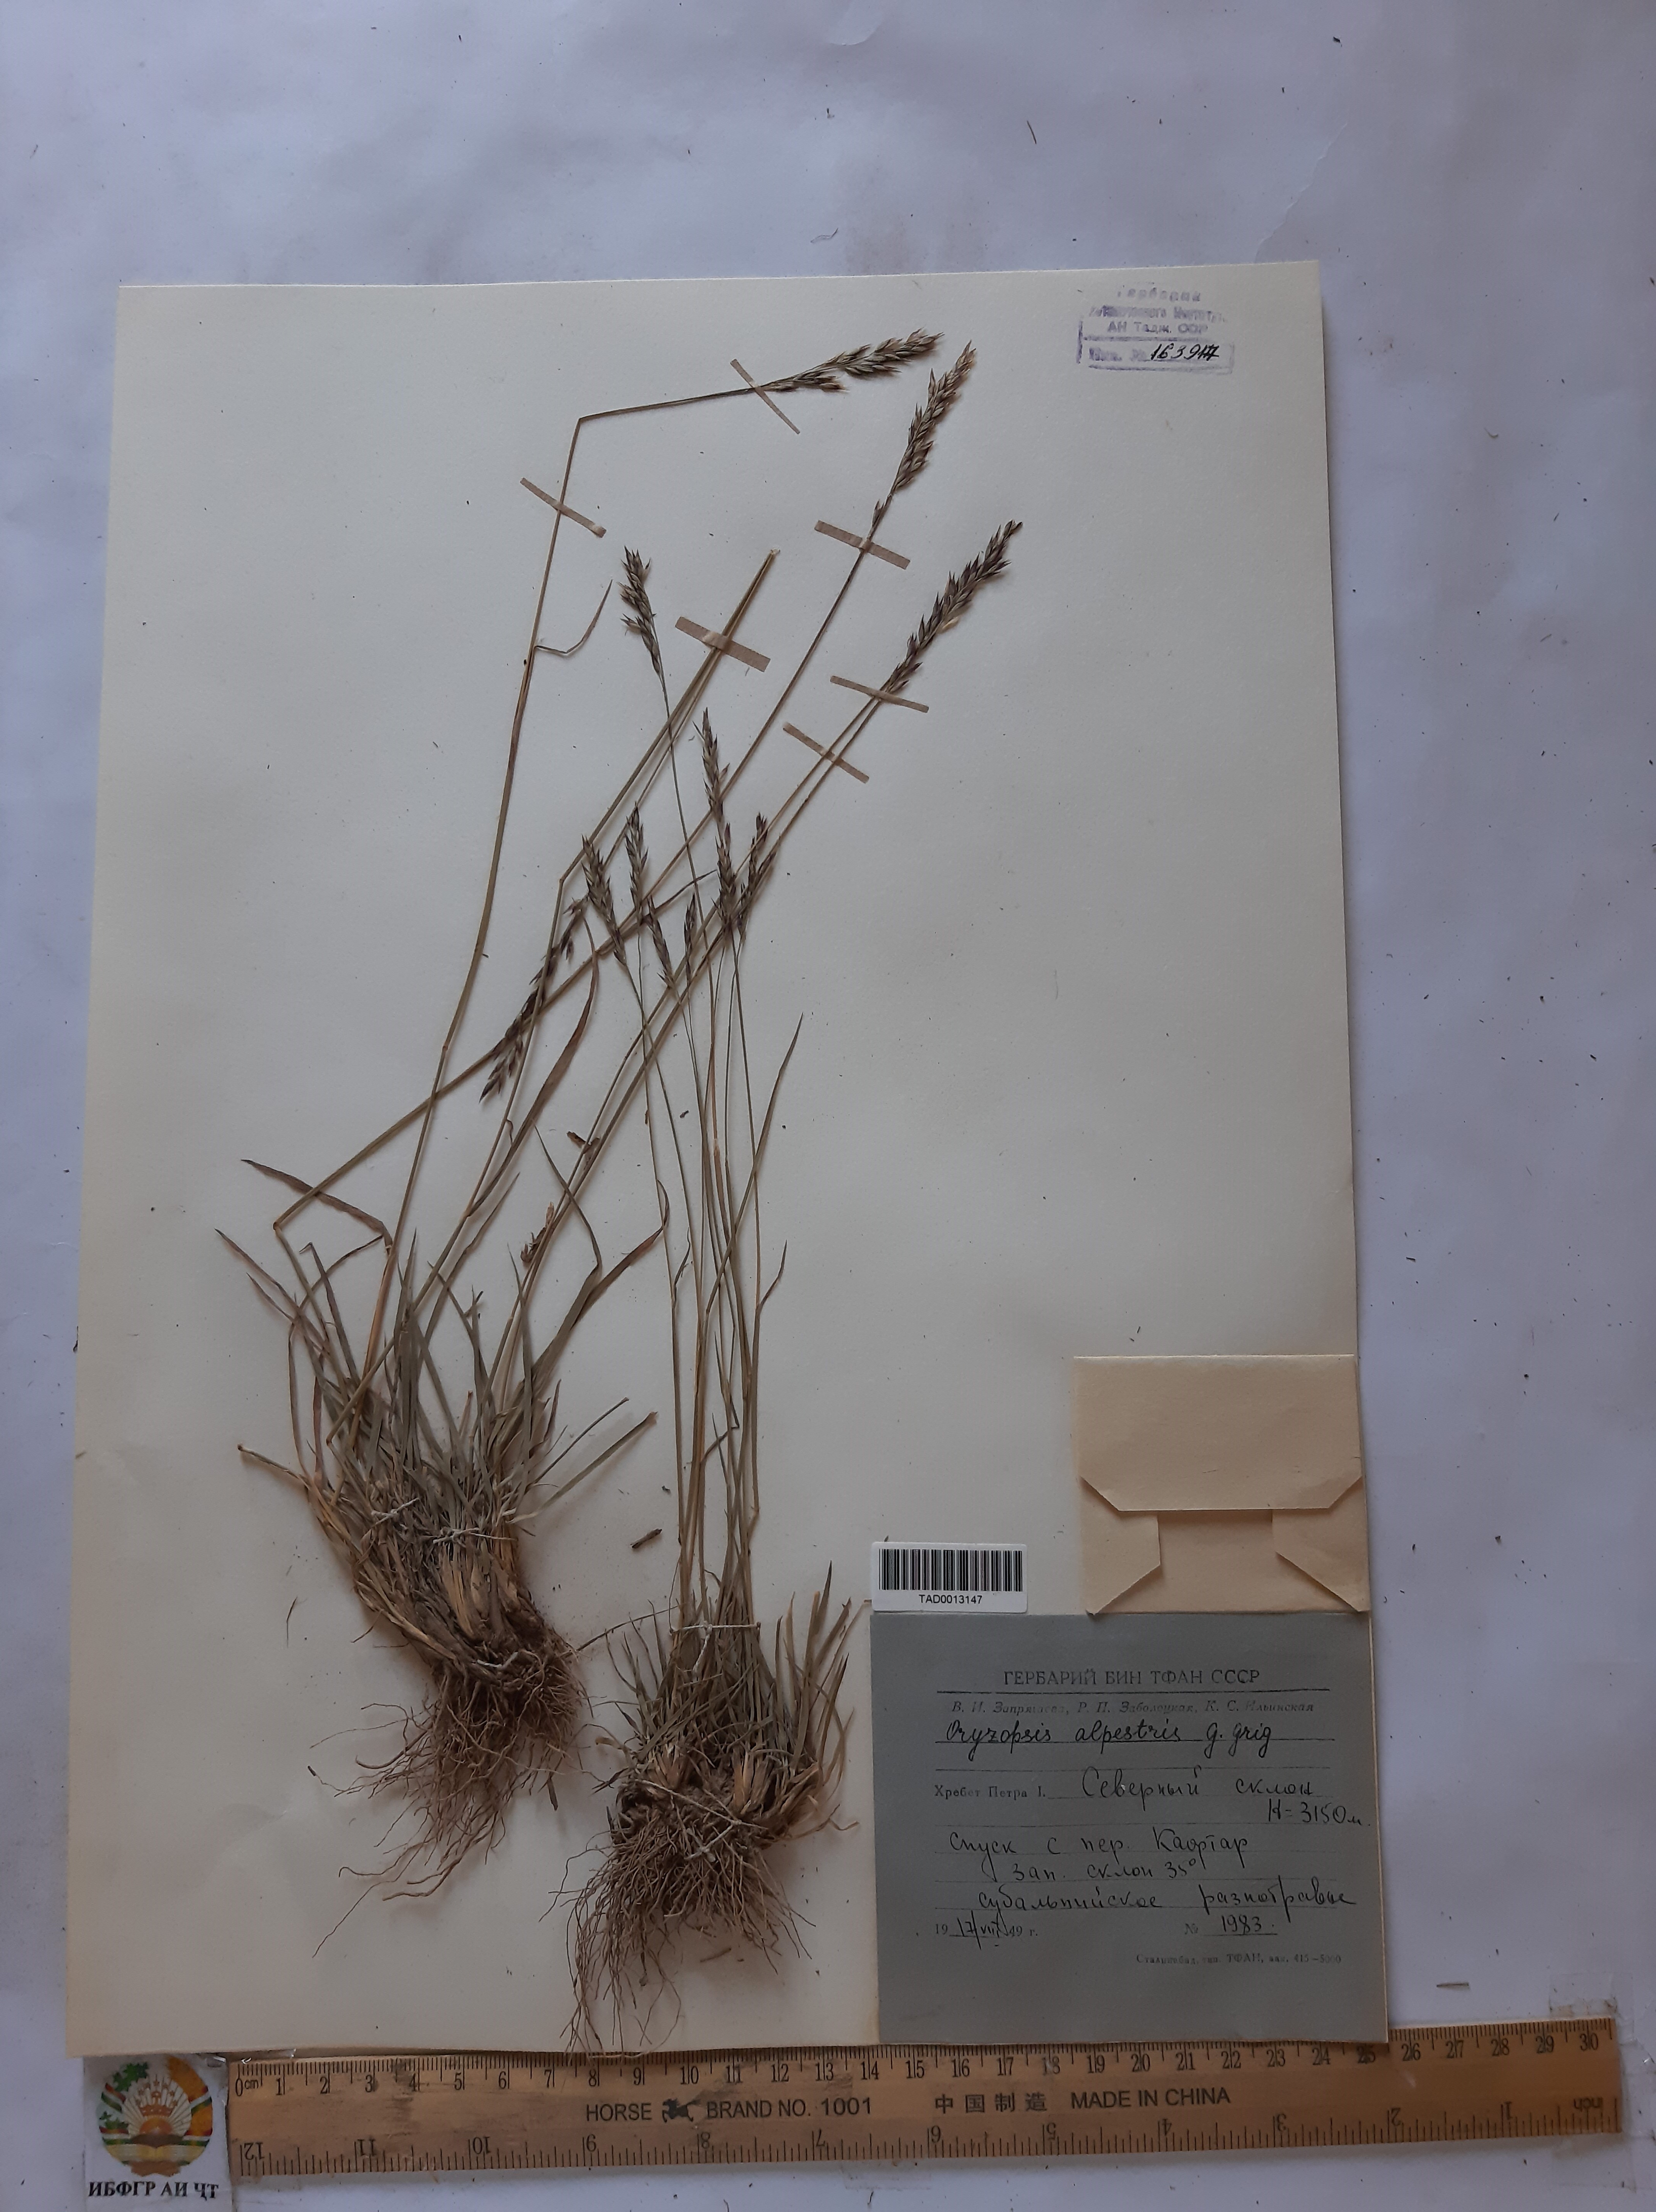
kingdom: Plantae
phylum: Tracheophyta
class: Liliopsida
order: Poales
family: Poaceae
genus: Piptatherum
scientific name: Piptatherum alpestre
